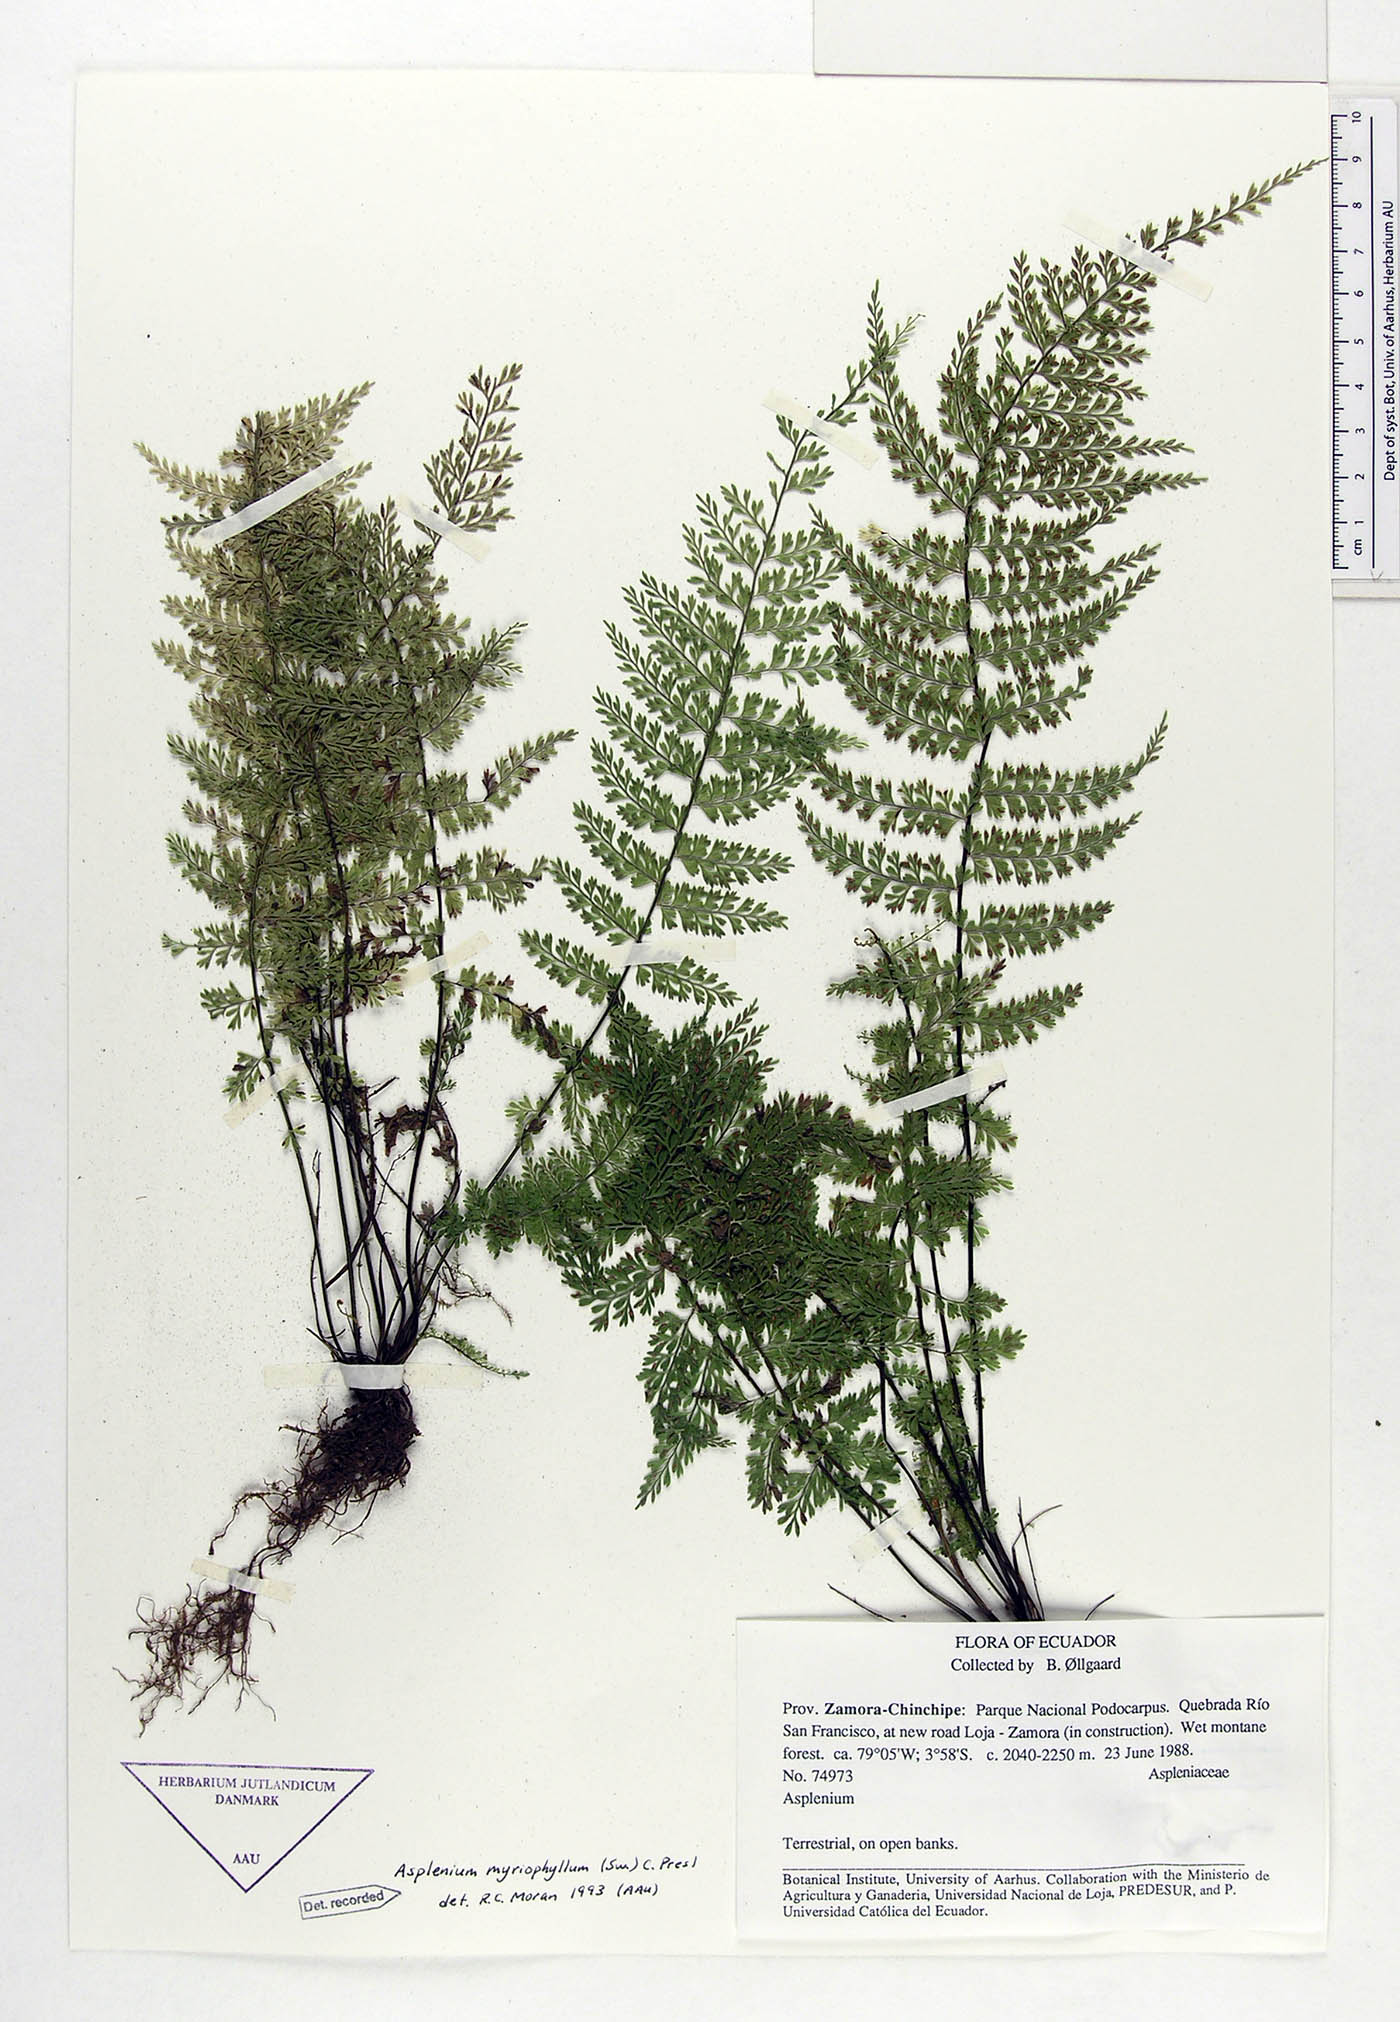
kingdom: Plantae
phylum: Tracheophyta
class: Polypodiopsida
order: Polypodiales
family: Aspleniaceae
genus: Asplenium
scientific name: Asplenium myriophyllum
